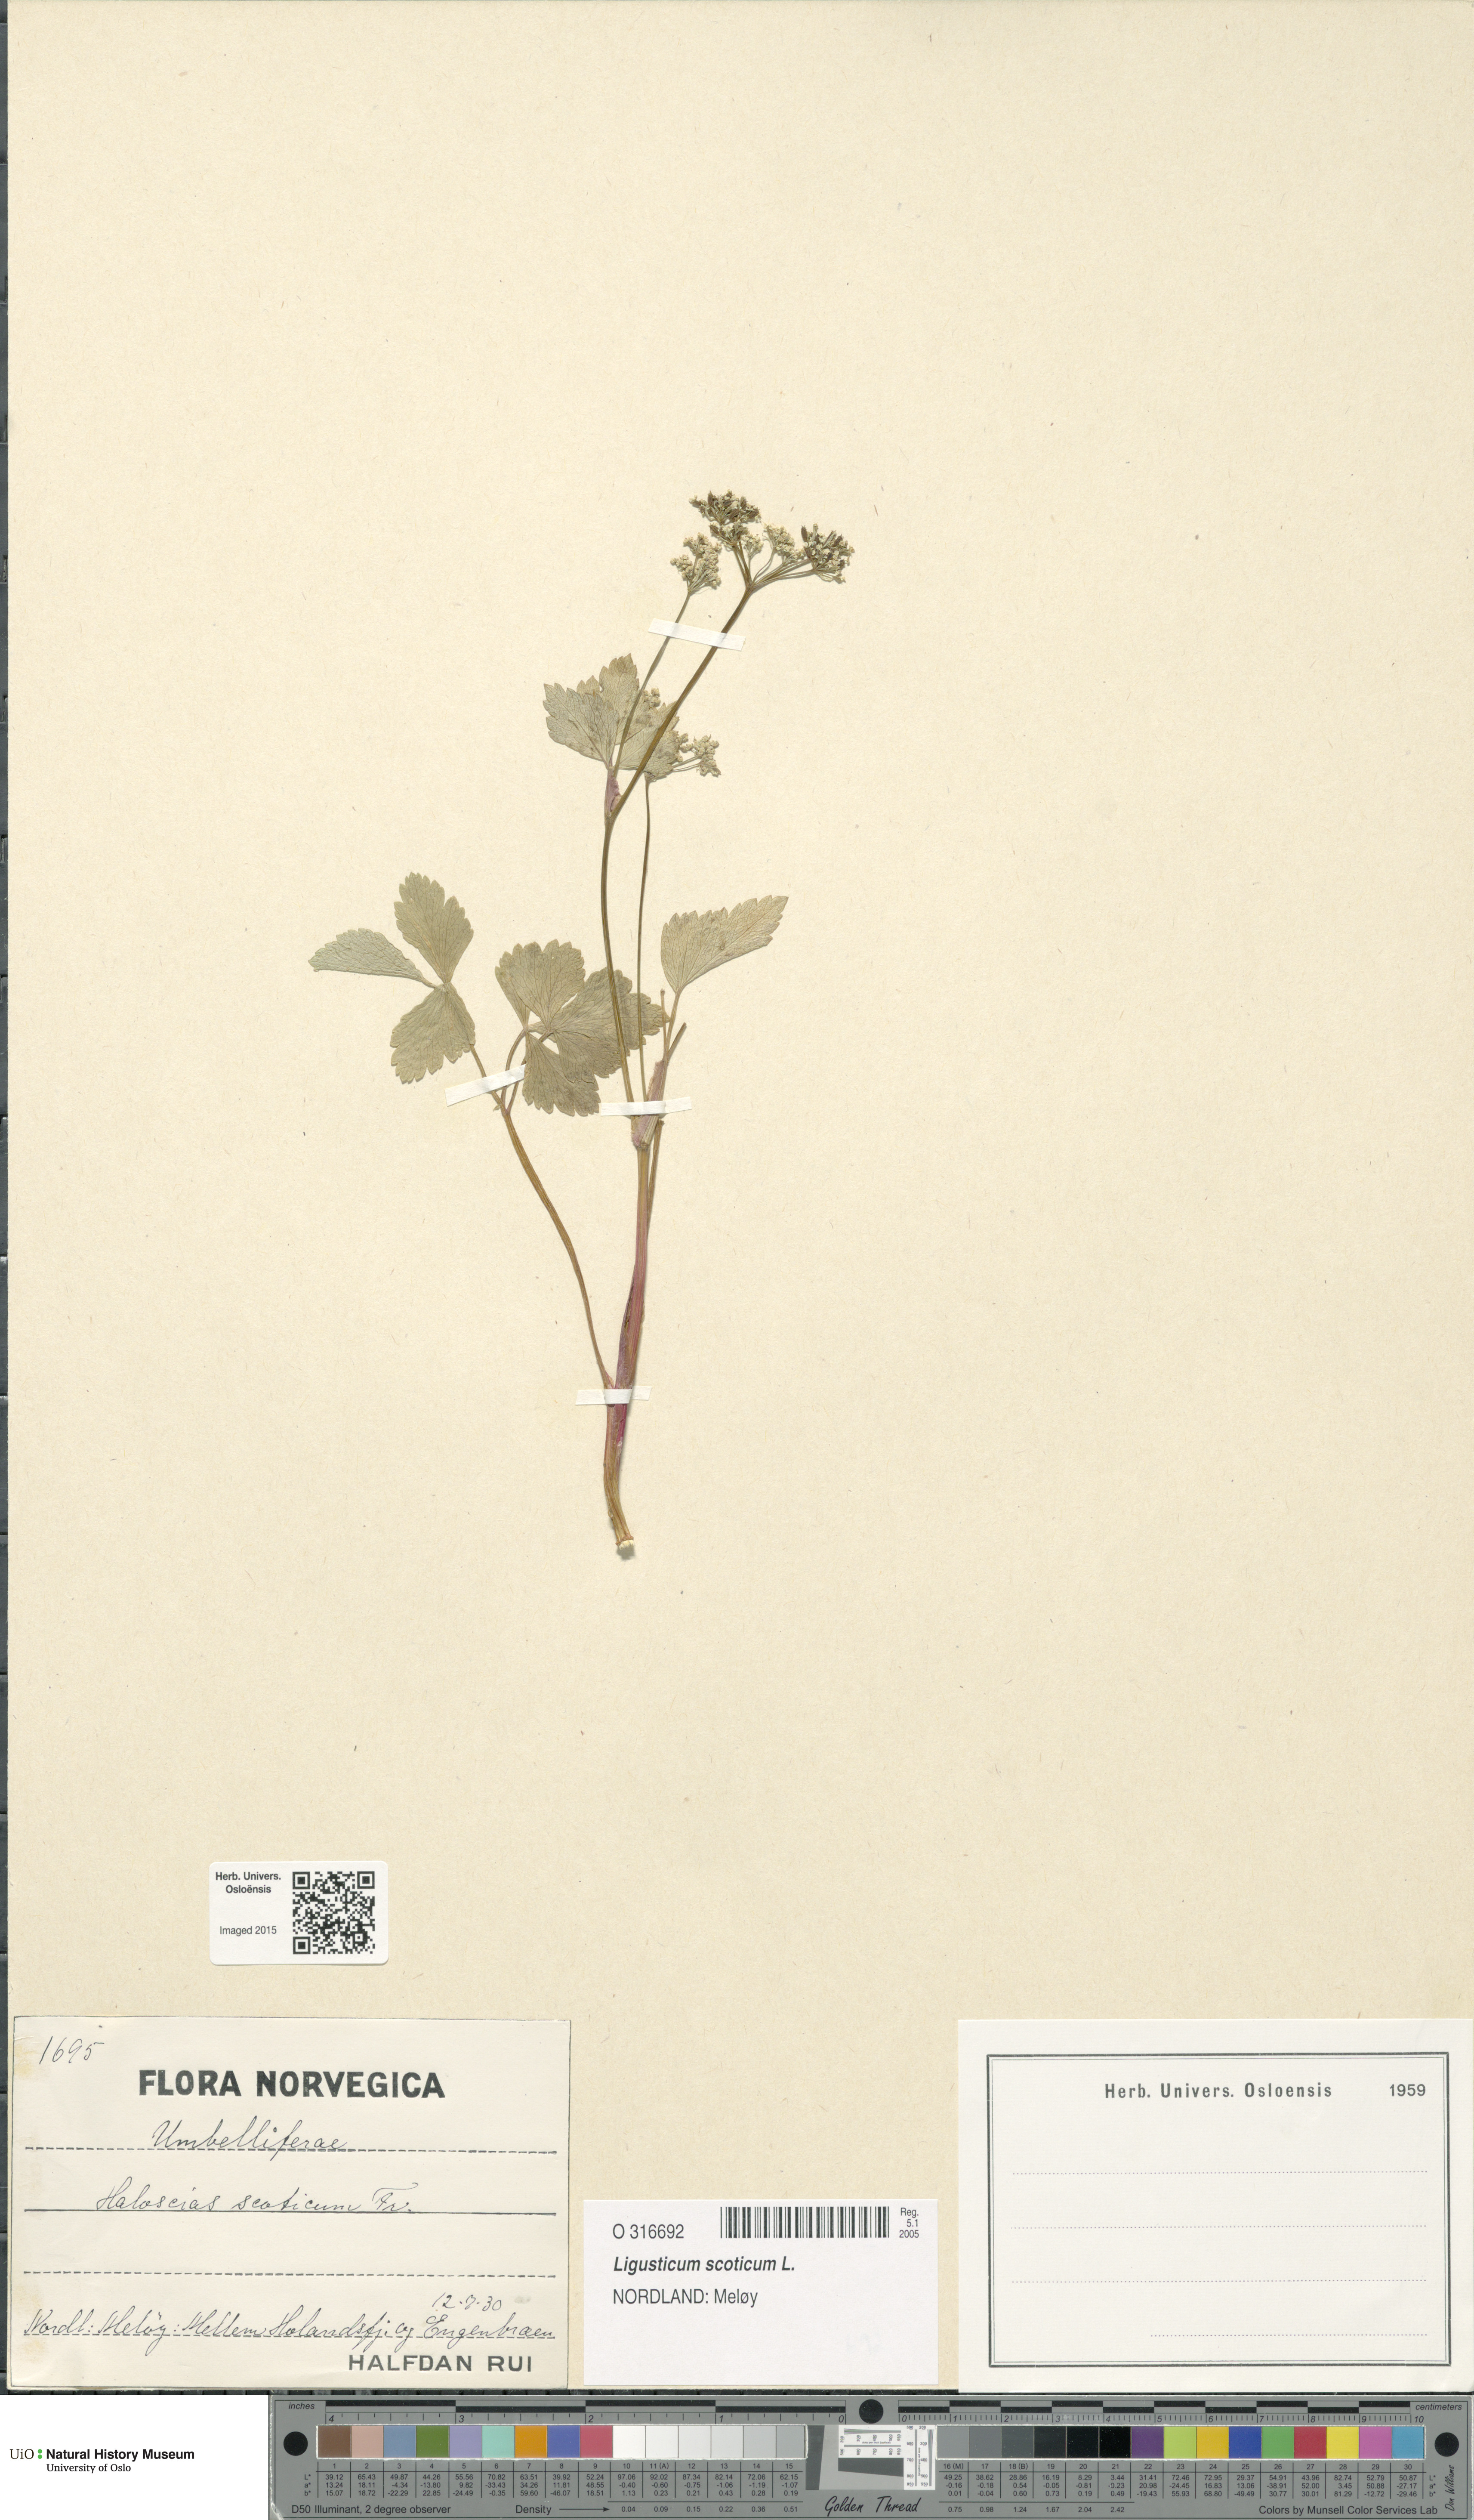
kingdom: Plantae
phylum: Tracheophyta
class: Magnoliopsida
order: Apiales
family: Apiaceae
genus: Ligusticum
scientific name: Ligusticum scothicum
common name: Beach lovage
